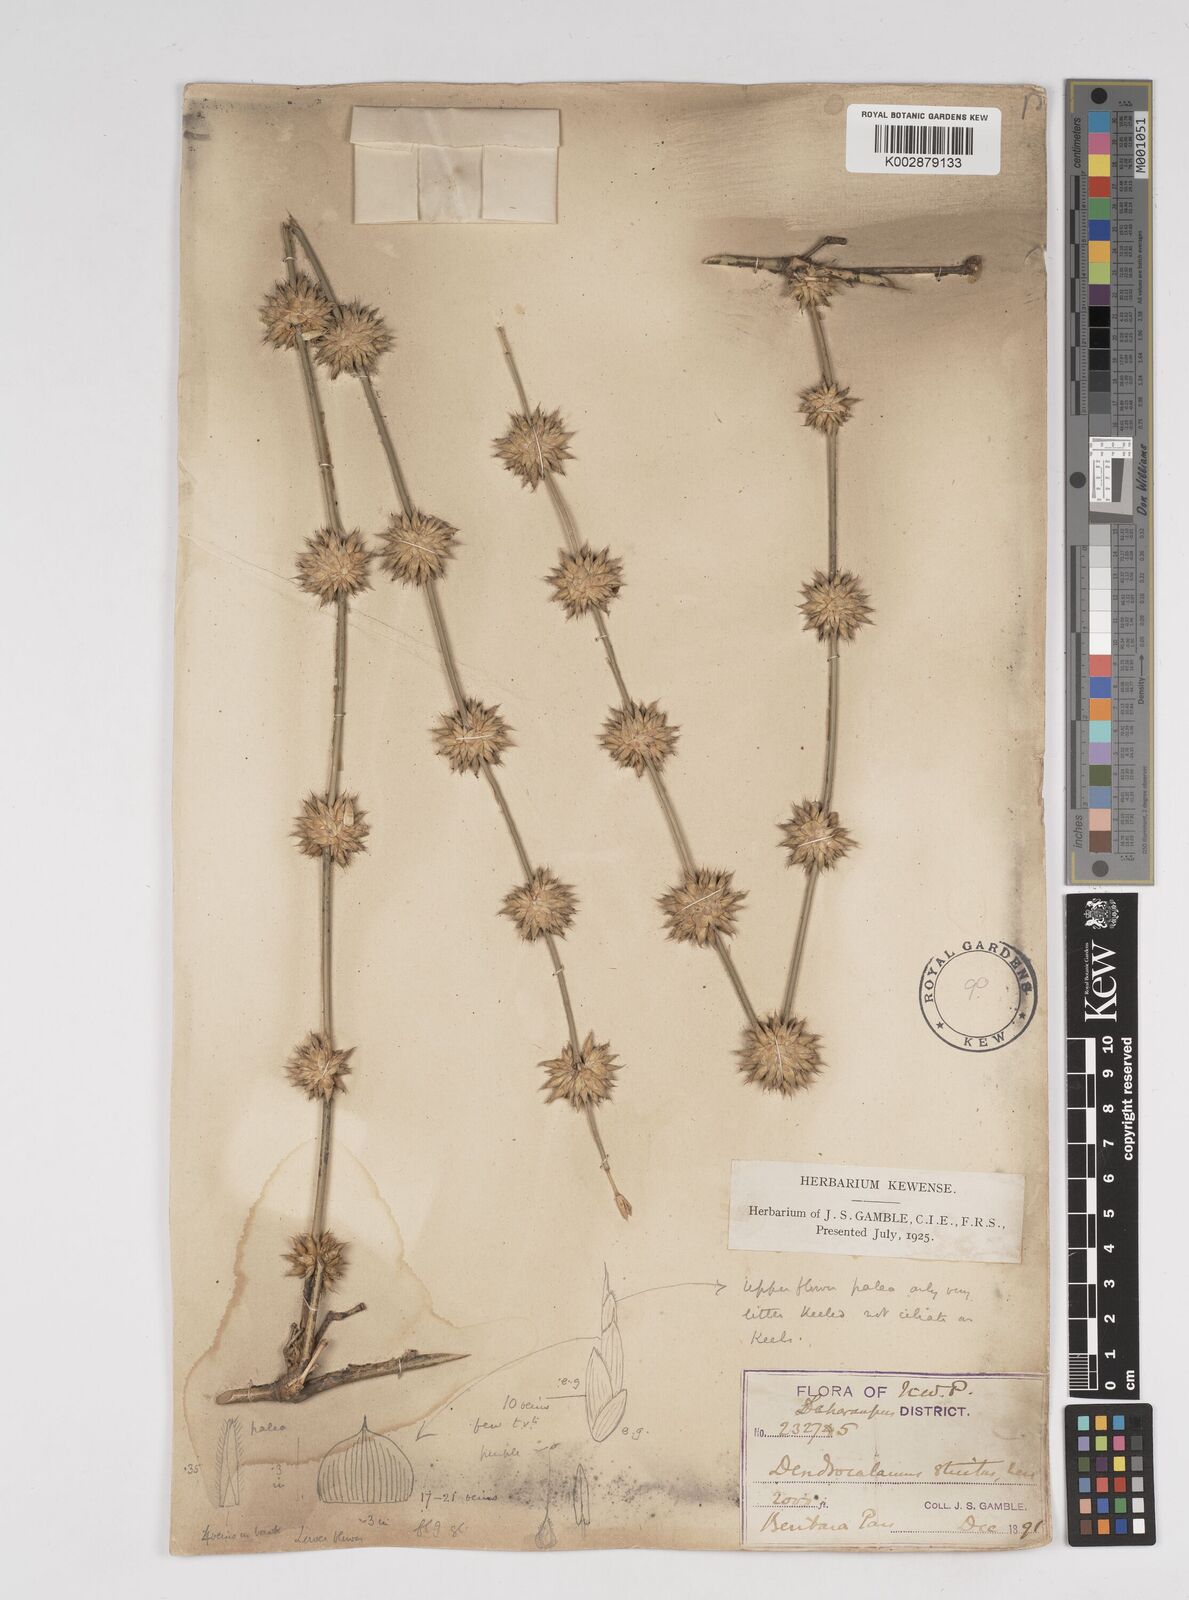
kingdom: Plantae
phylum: Tracheophyta
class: Liliopsida
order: Poales
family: Poaceae
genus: Dendrocalamus
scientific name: Dendrocalamus strictus
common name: Male bamboo
